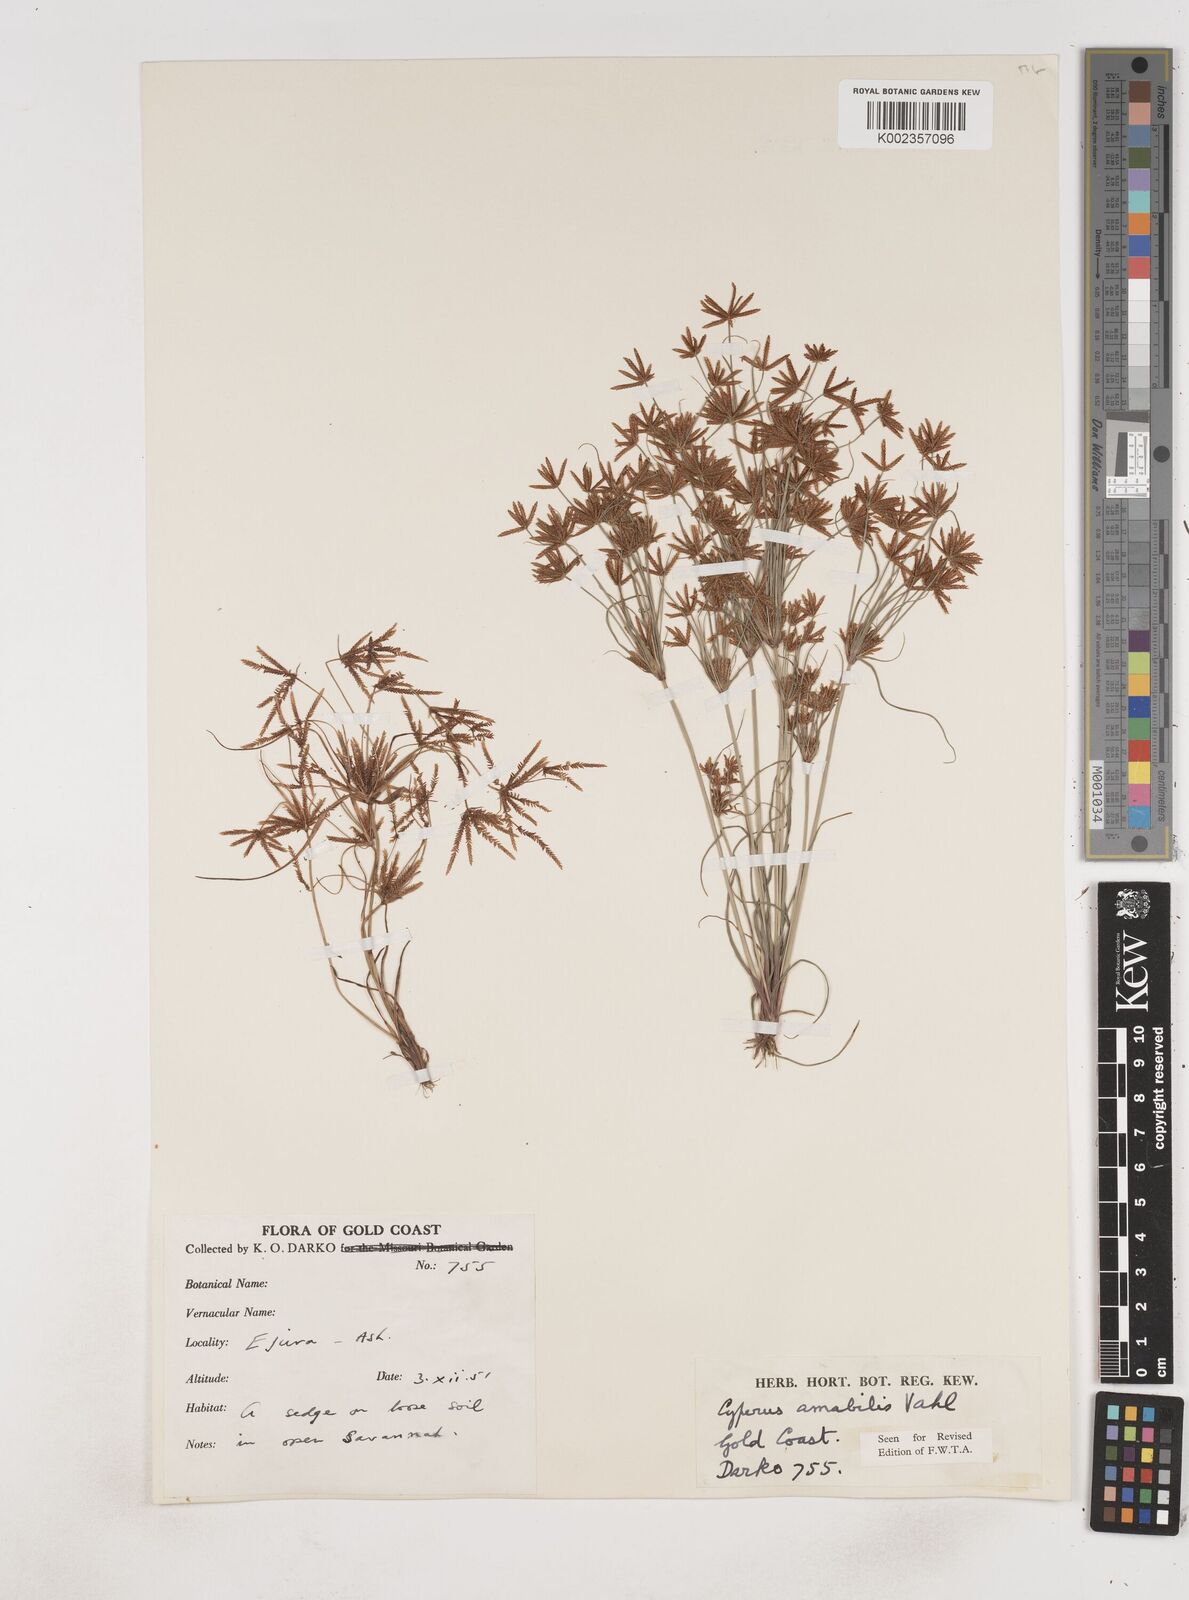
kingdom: Plantae
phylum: Tracheophyta
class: Liliopsida
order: Poales
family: Cyperaceae
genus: Cyperus
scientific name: Cyperus amabilis
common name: Foothill flat sedge
